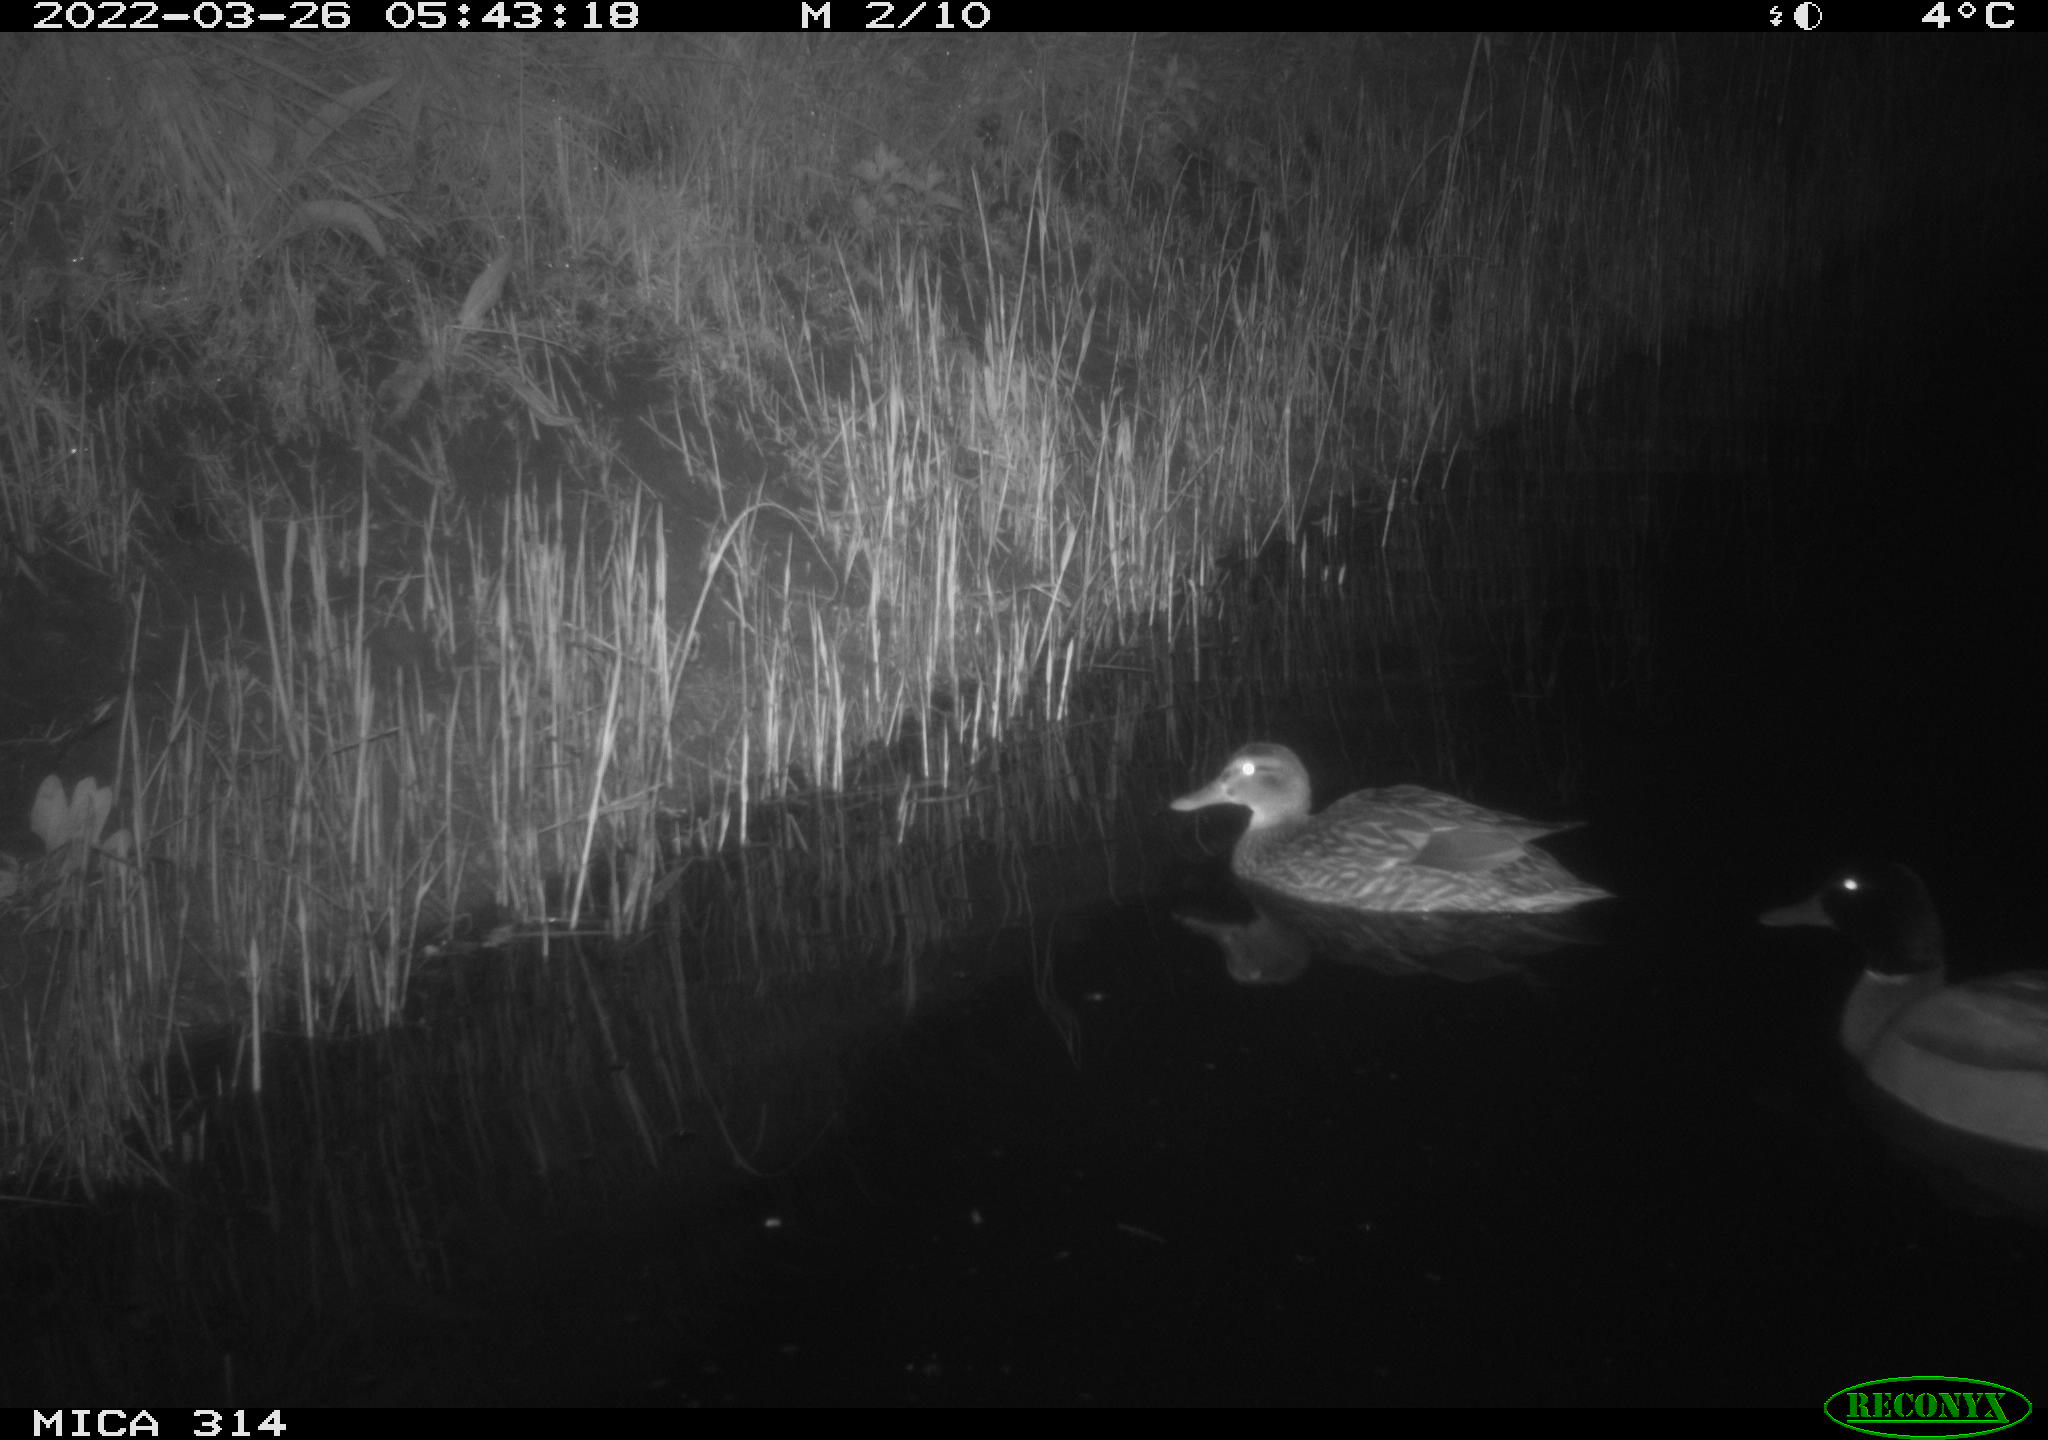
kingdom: Animalia
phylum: Chordata
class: Aves
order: Anseriformes
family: Anatidae
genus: Anas
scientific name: Anas platyrhynchos
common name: Mallard
